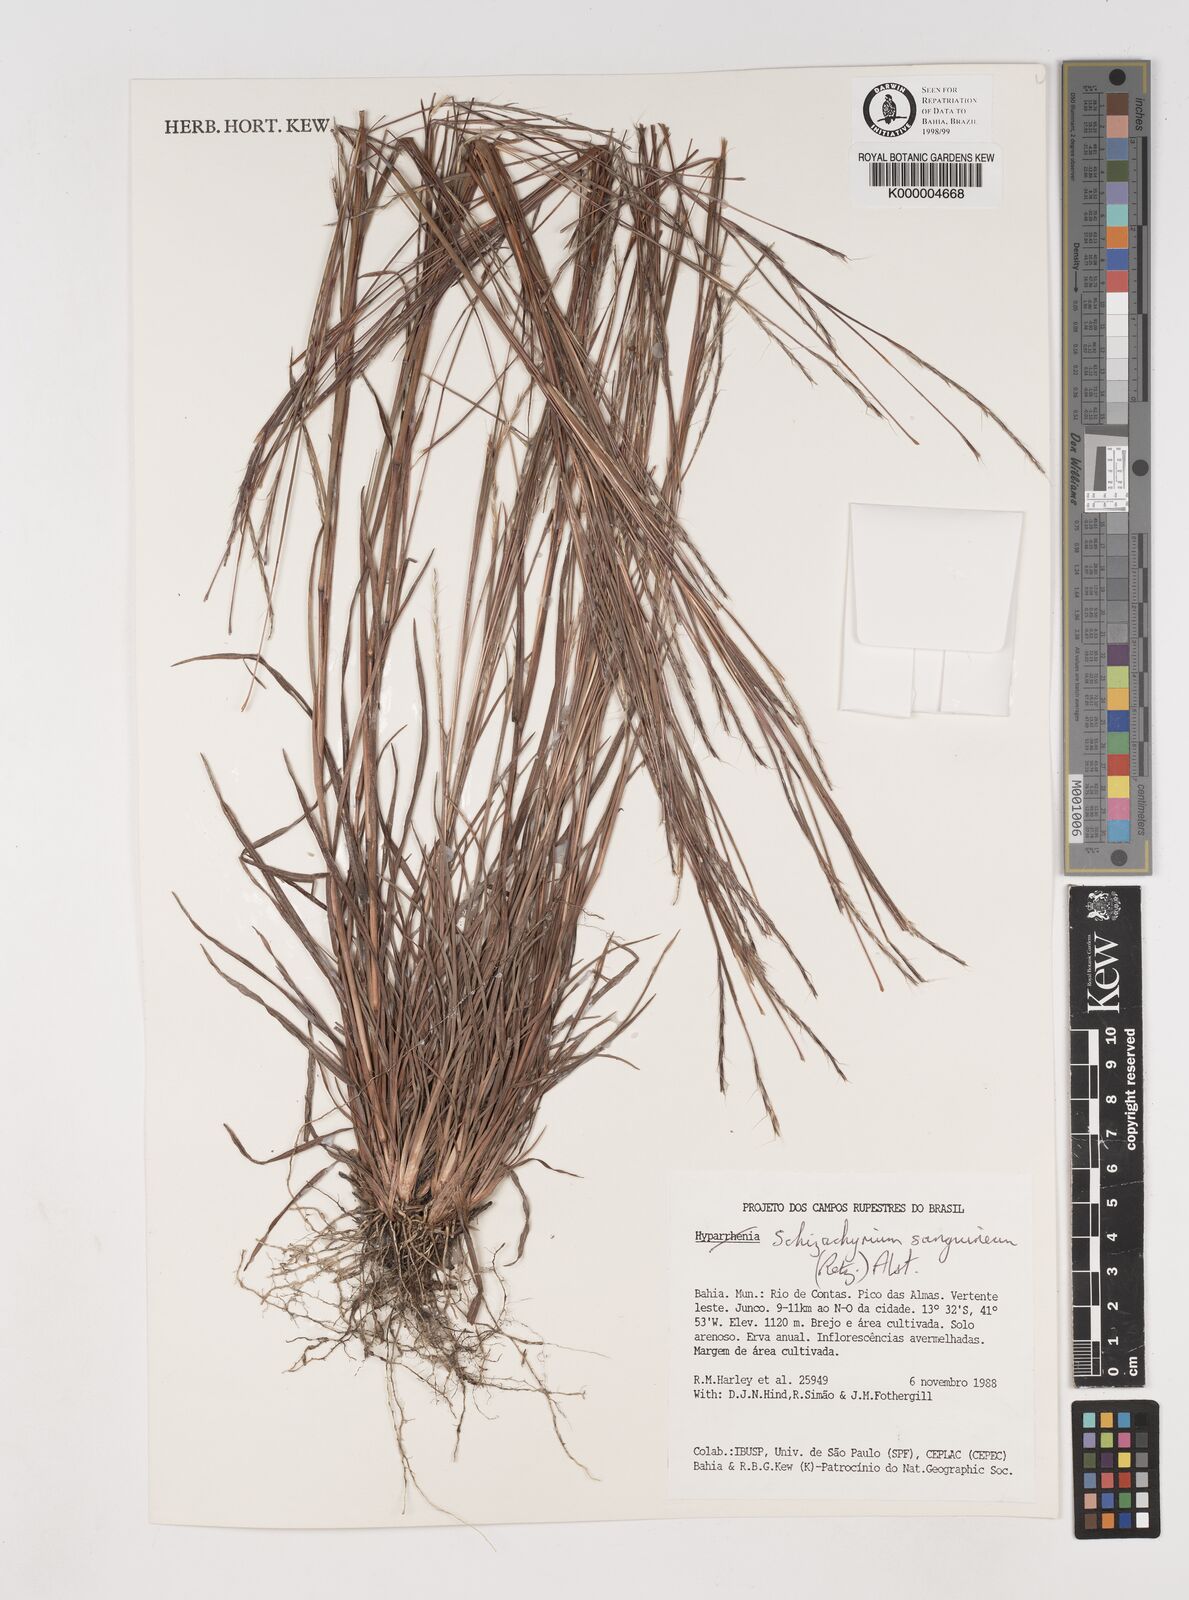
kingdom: Plantae
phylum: Tracheophyta
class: Liliopsida
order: Poales
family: Poaceae
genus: Schizachyrium
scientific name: Schizachyrium sanguineum
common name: Crimson bluestem
